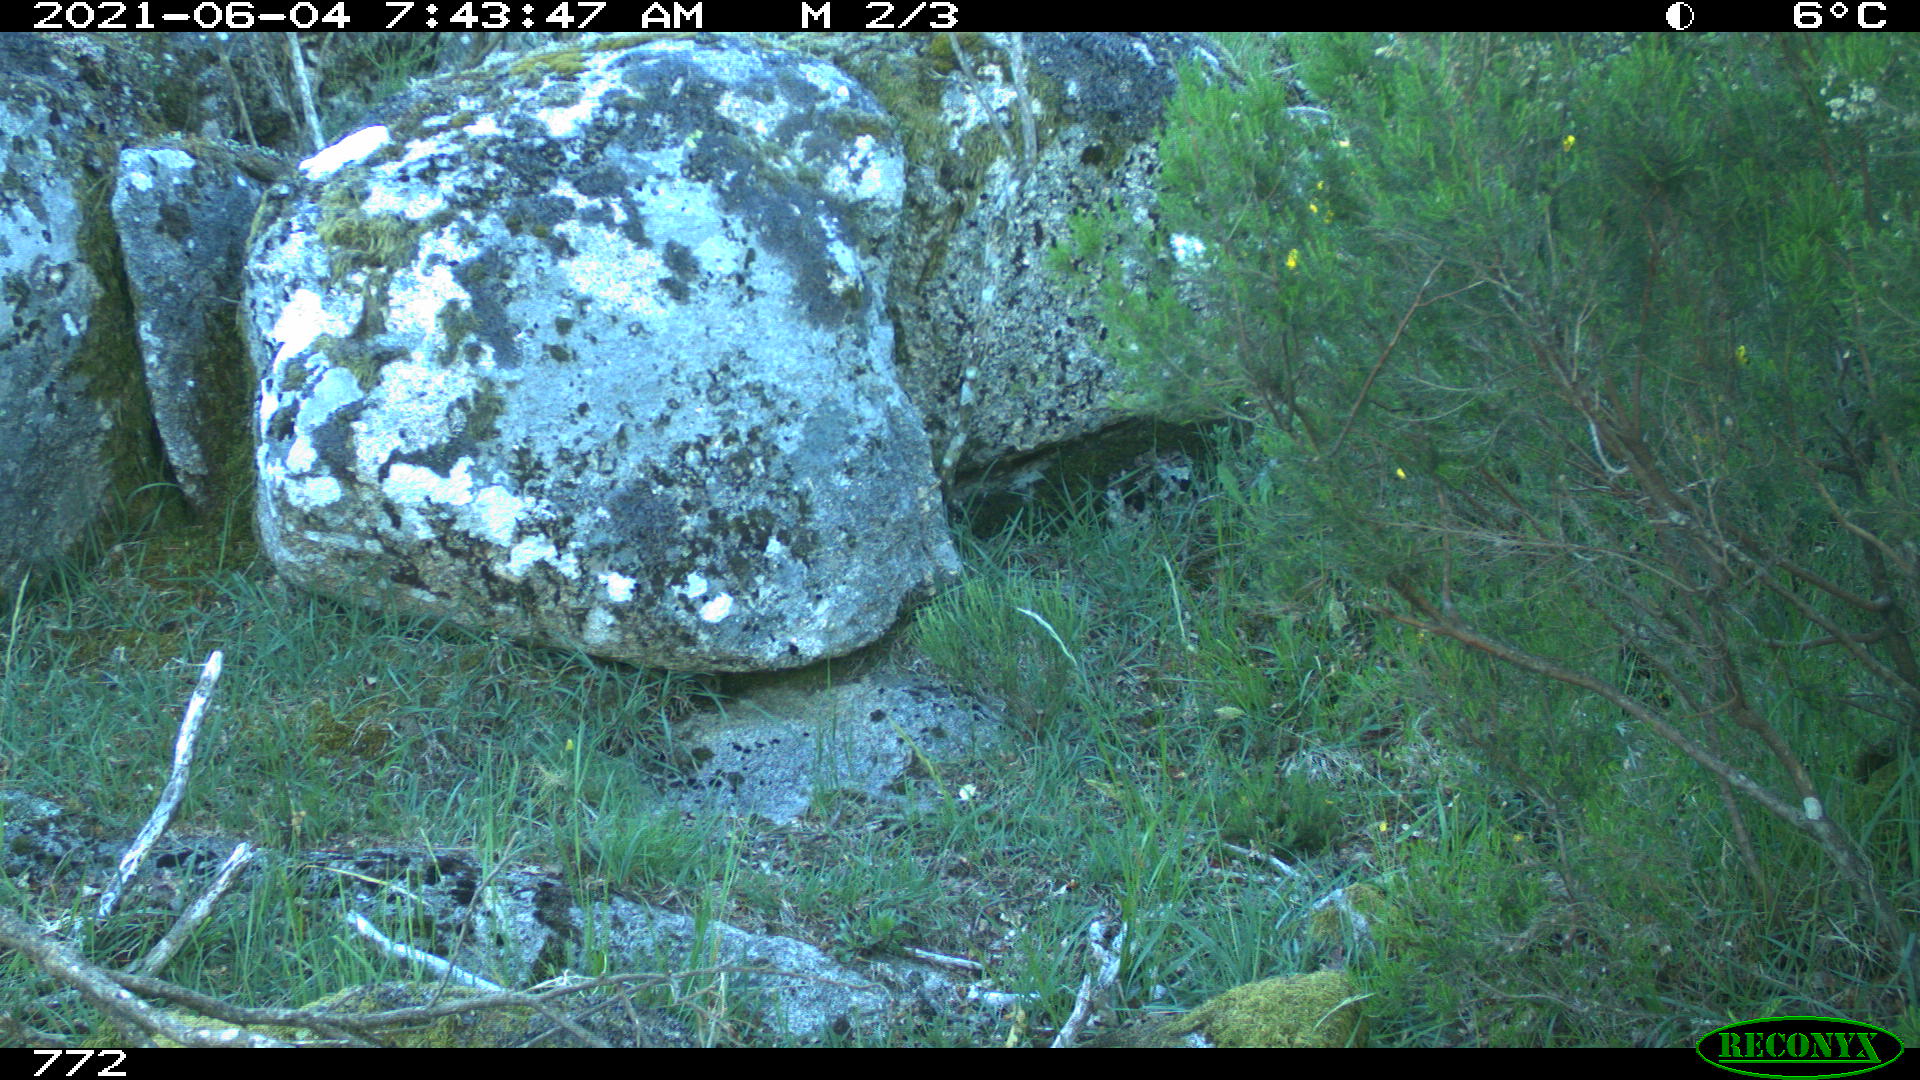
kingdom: Animalia
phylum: Chordata
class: Mammalia
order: Artiodactyla
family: Cervidae
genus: Capreolus
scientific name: Capreolus capreolus
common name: Western roe deer
